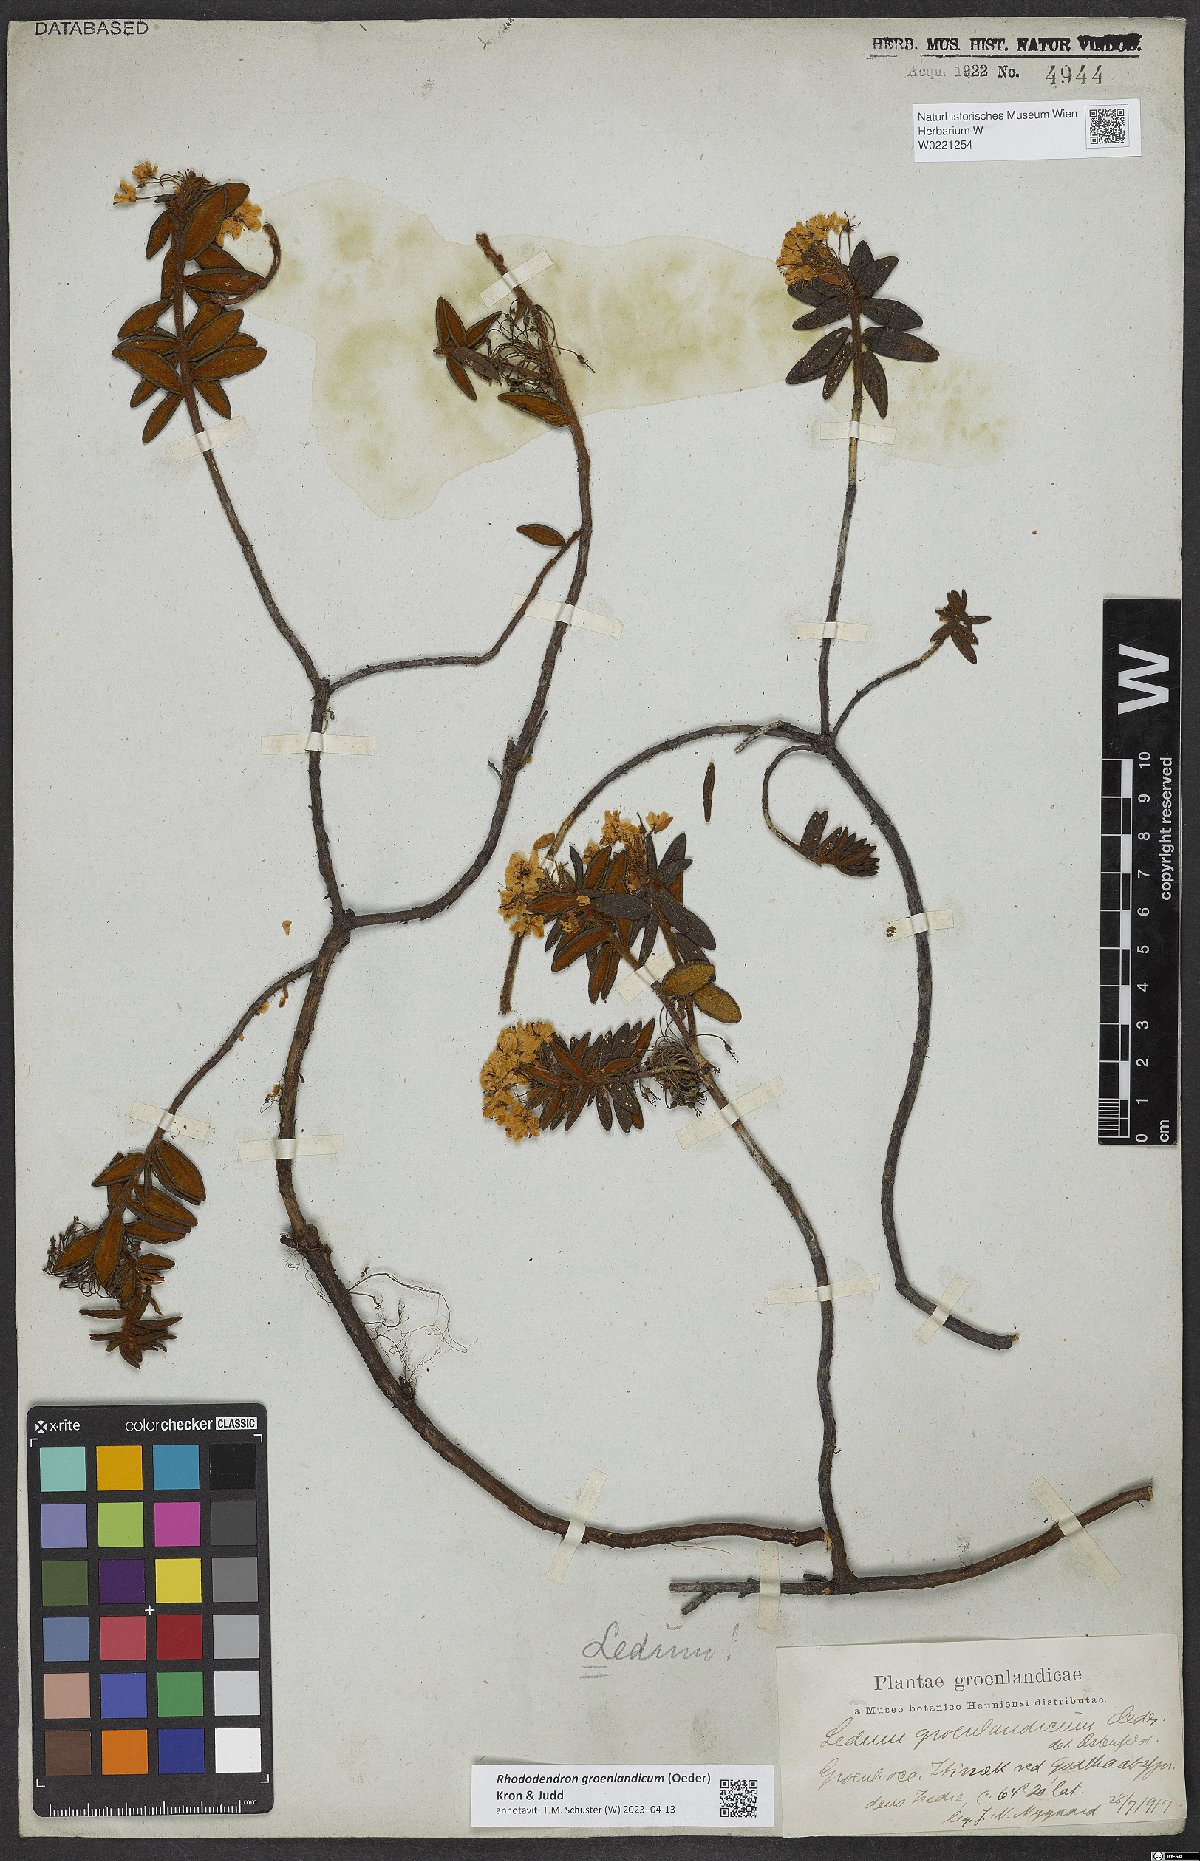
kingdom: Plantae
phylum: Tracheophyta
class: Magnoliopsida
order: Ericales
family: Ericaceae
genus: Rhododendron
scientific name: Rhododendron groenlandicum
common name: Bog labrador tea
